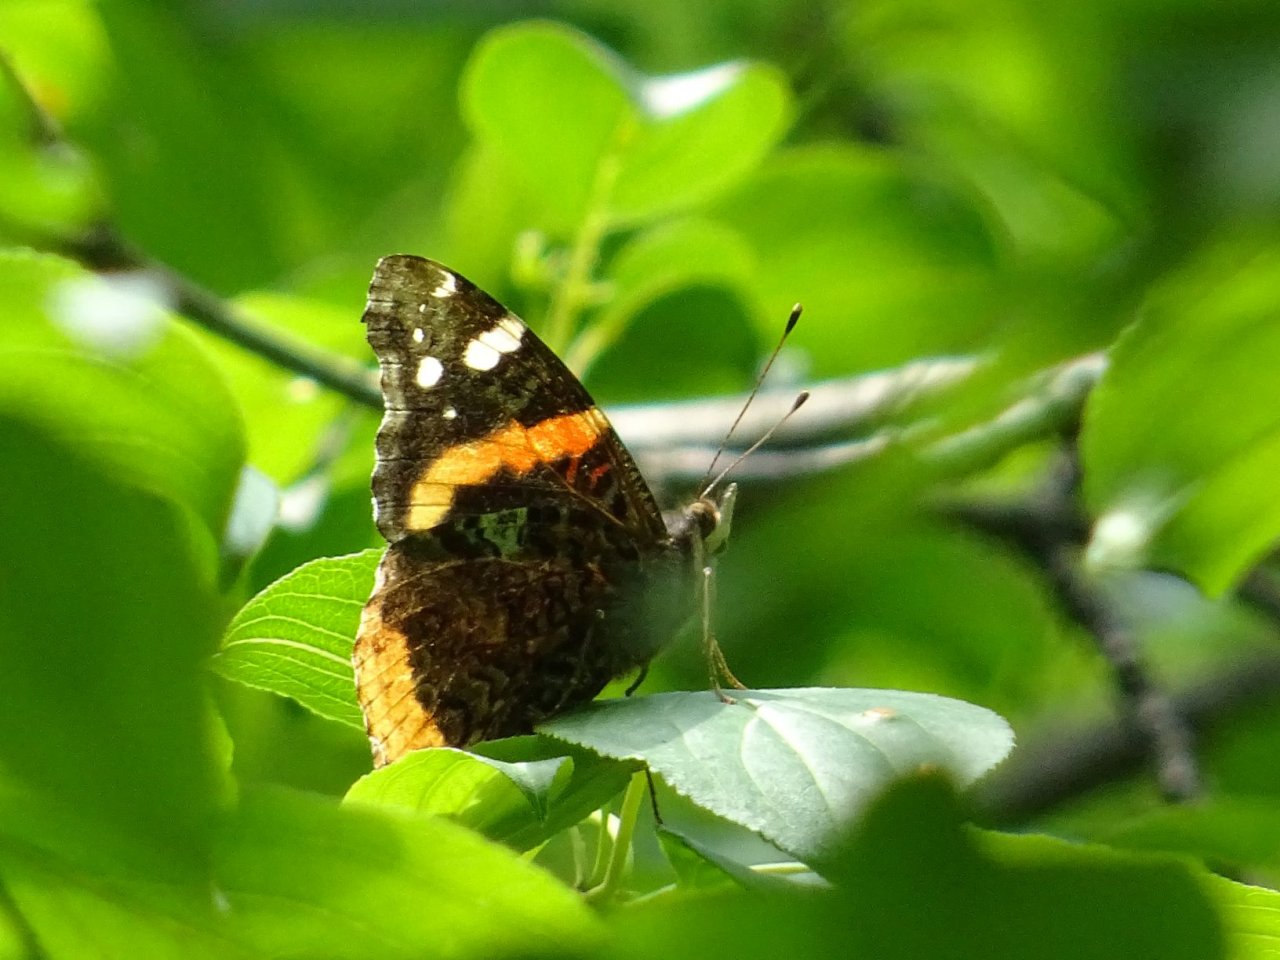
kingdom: Animalia
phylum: Arthropoda
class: Insecta
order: Lepidoptera
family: Nymphalidae
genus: Vanessa
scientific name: Vanessa atalanta
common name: Red Admiral
